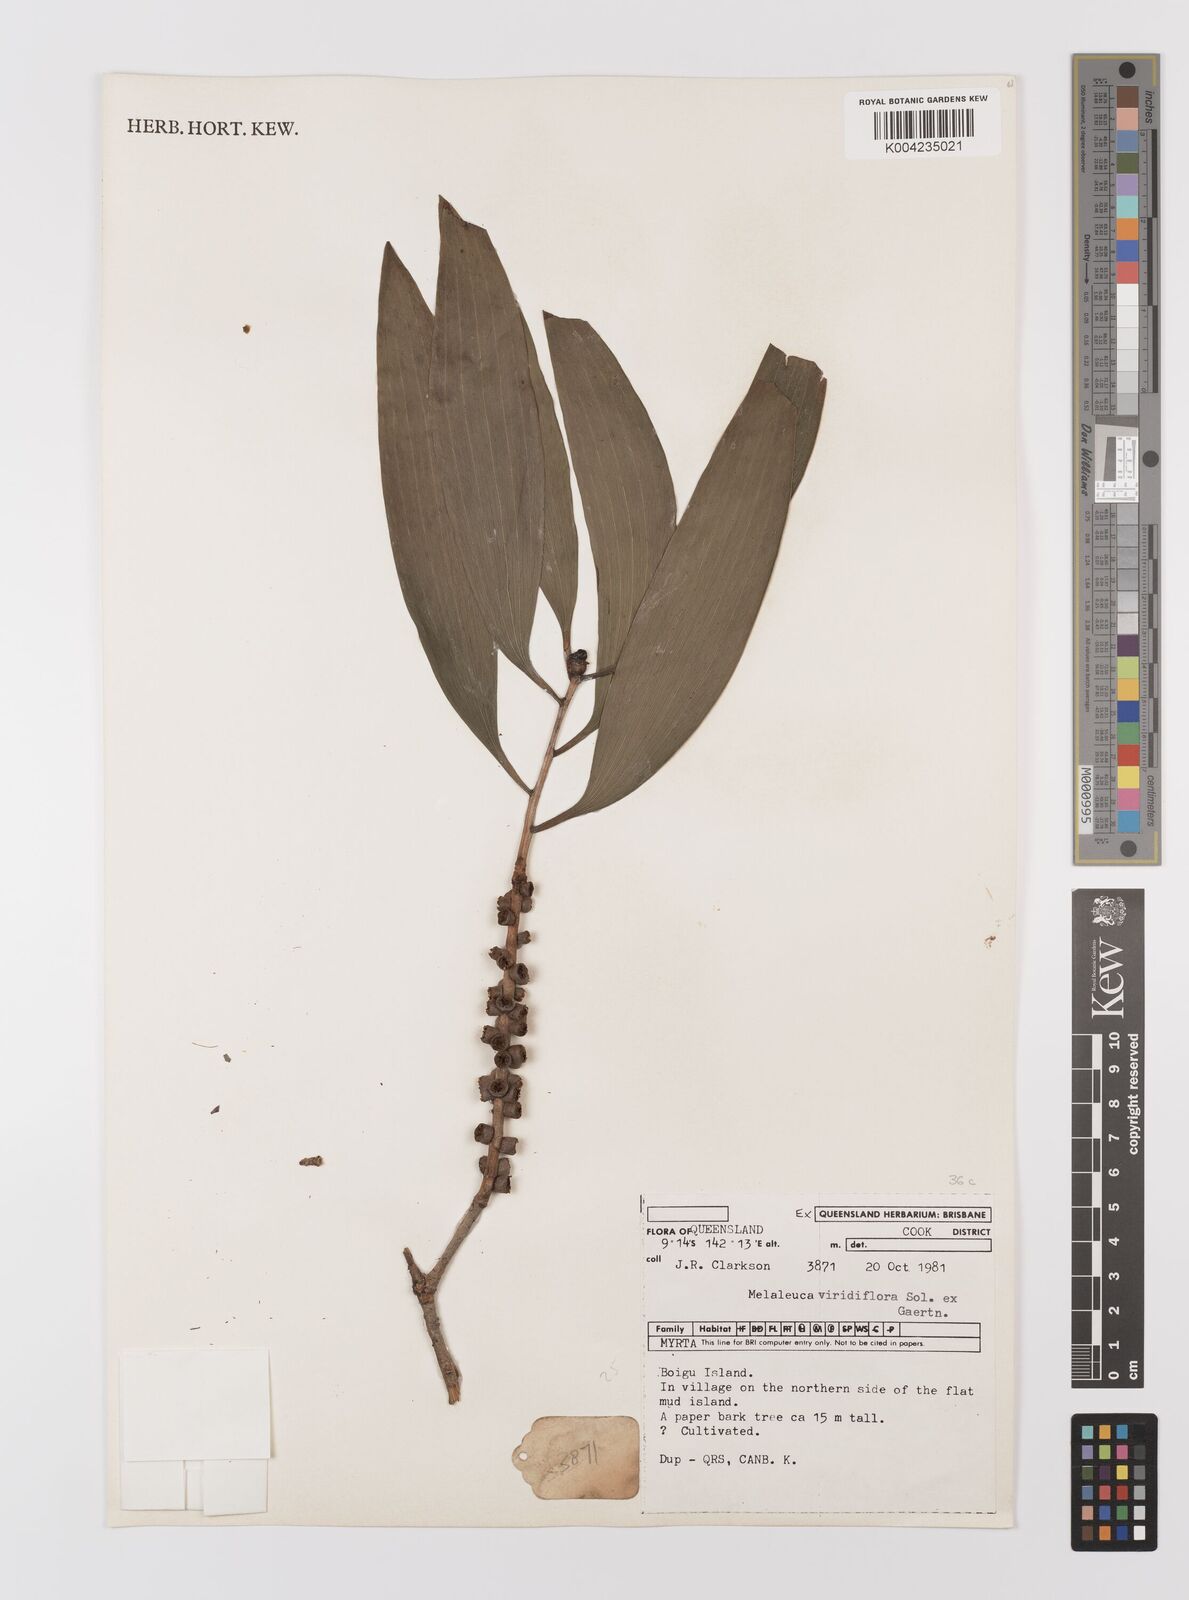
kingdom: Plantae
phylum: Tracheophyta
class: Magnoliopsida
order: Myrtales
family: Myrtaceae
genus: Melaleuca
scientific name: Melaleuca viridiflora
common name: Brown-leaved paperbark
